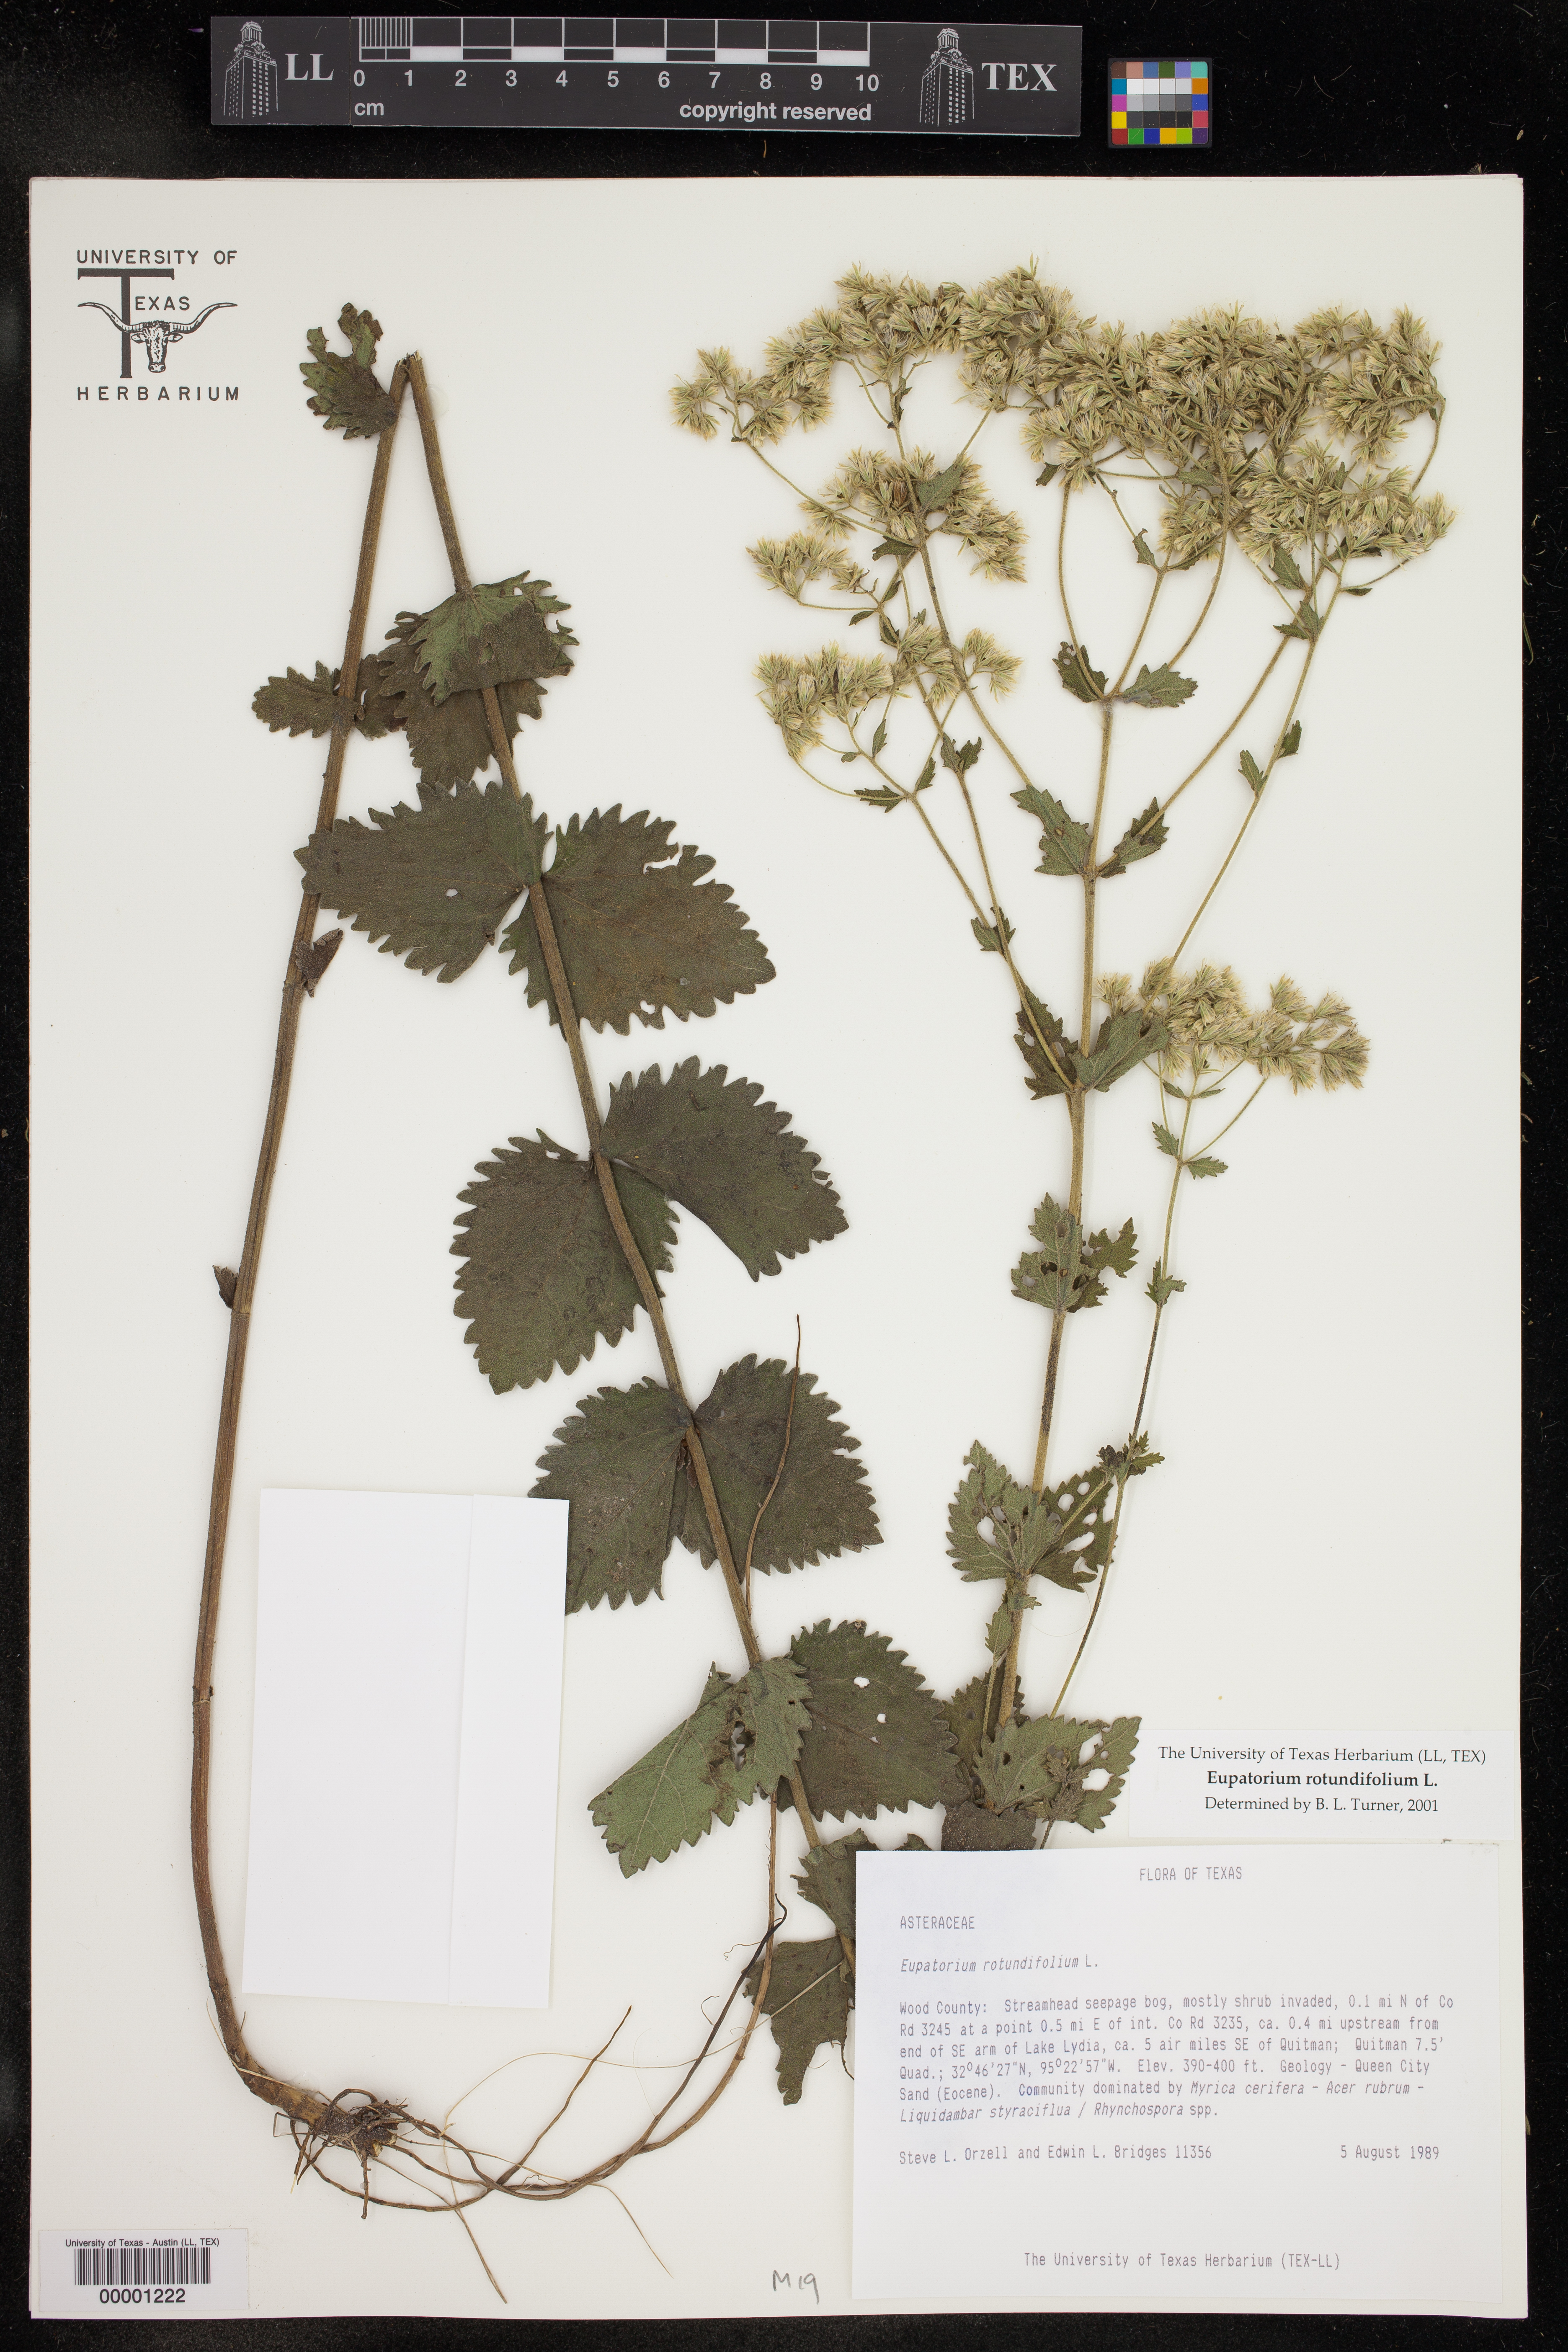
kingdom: Plantae
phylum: Tracheophyta
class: Magnoliopsida
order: Asterales
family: Asteraceae
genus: Eupatorium
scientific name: Eupatorium rotundifolium
